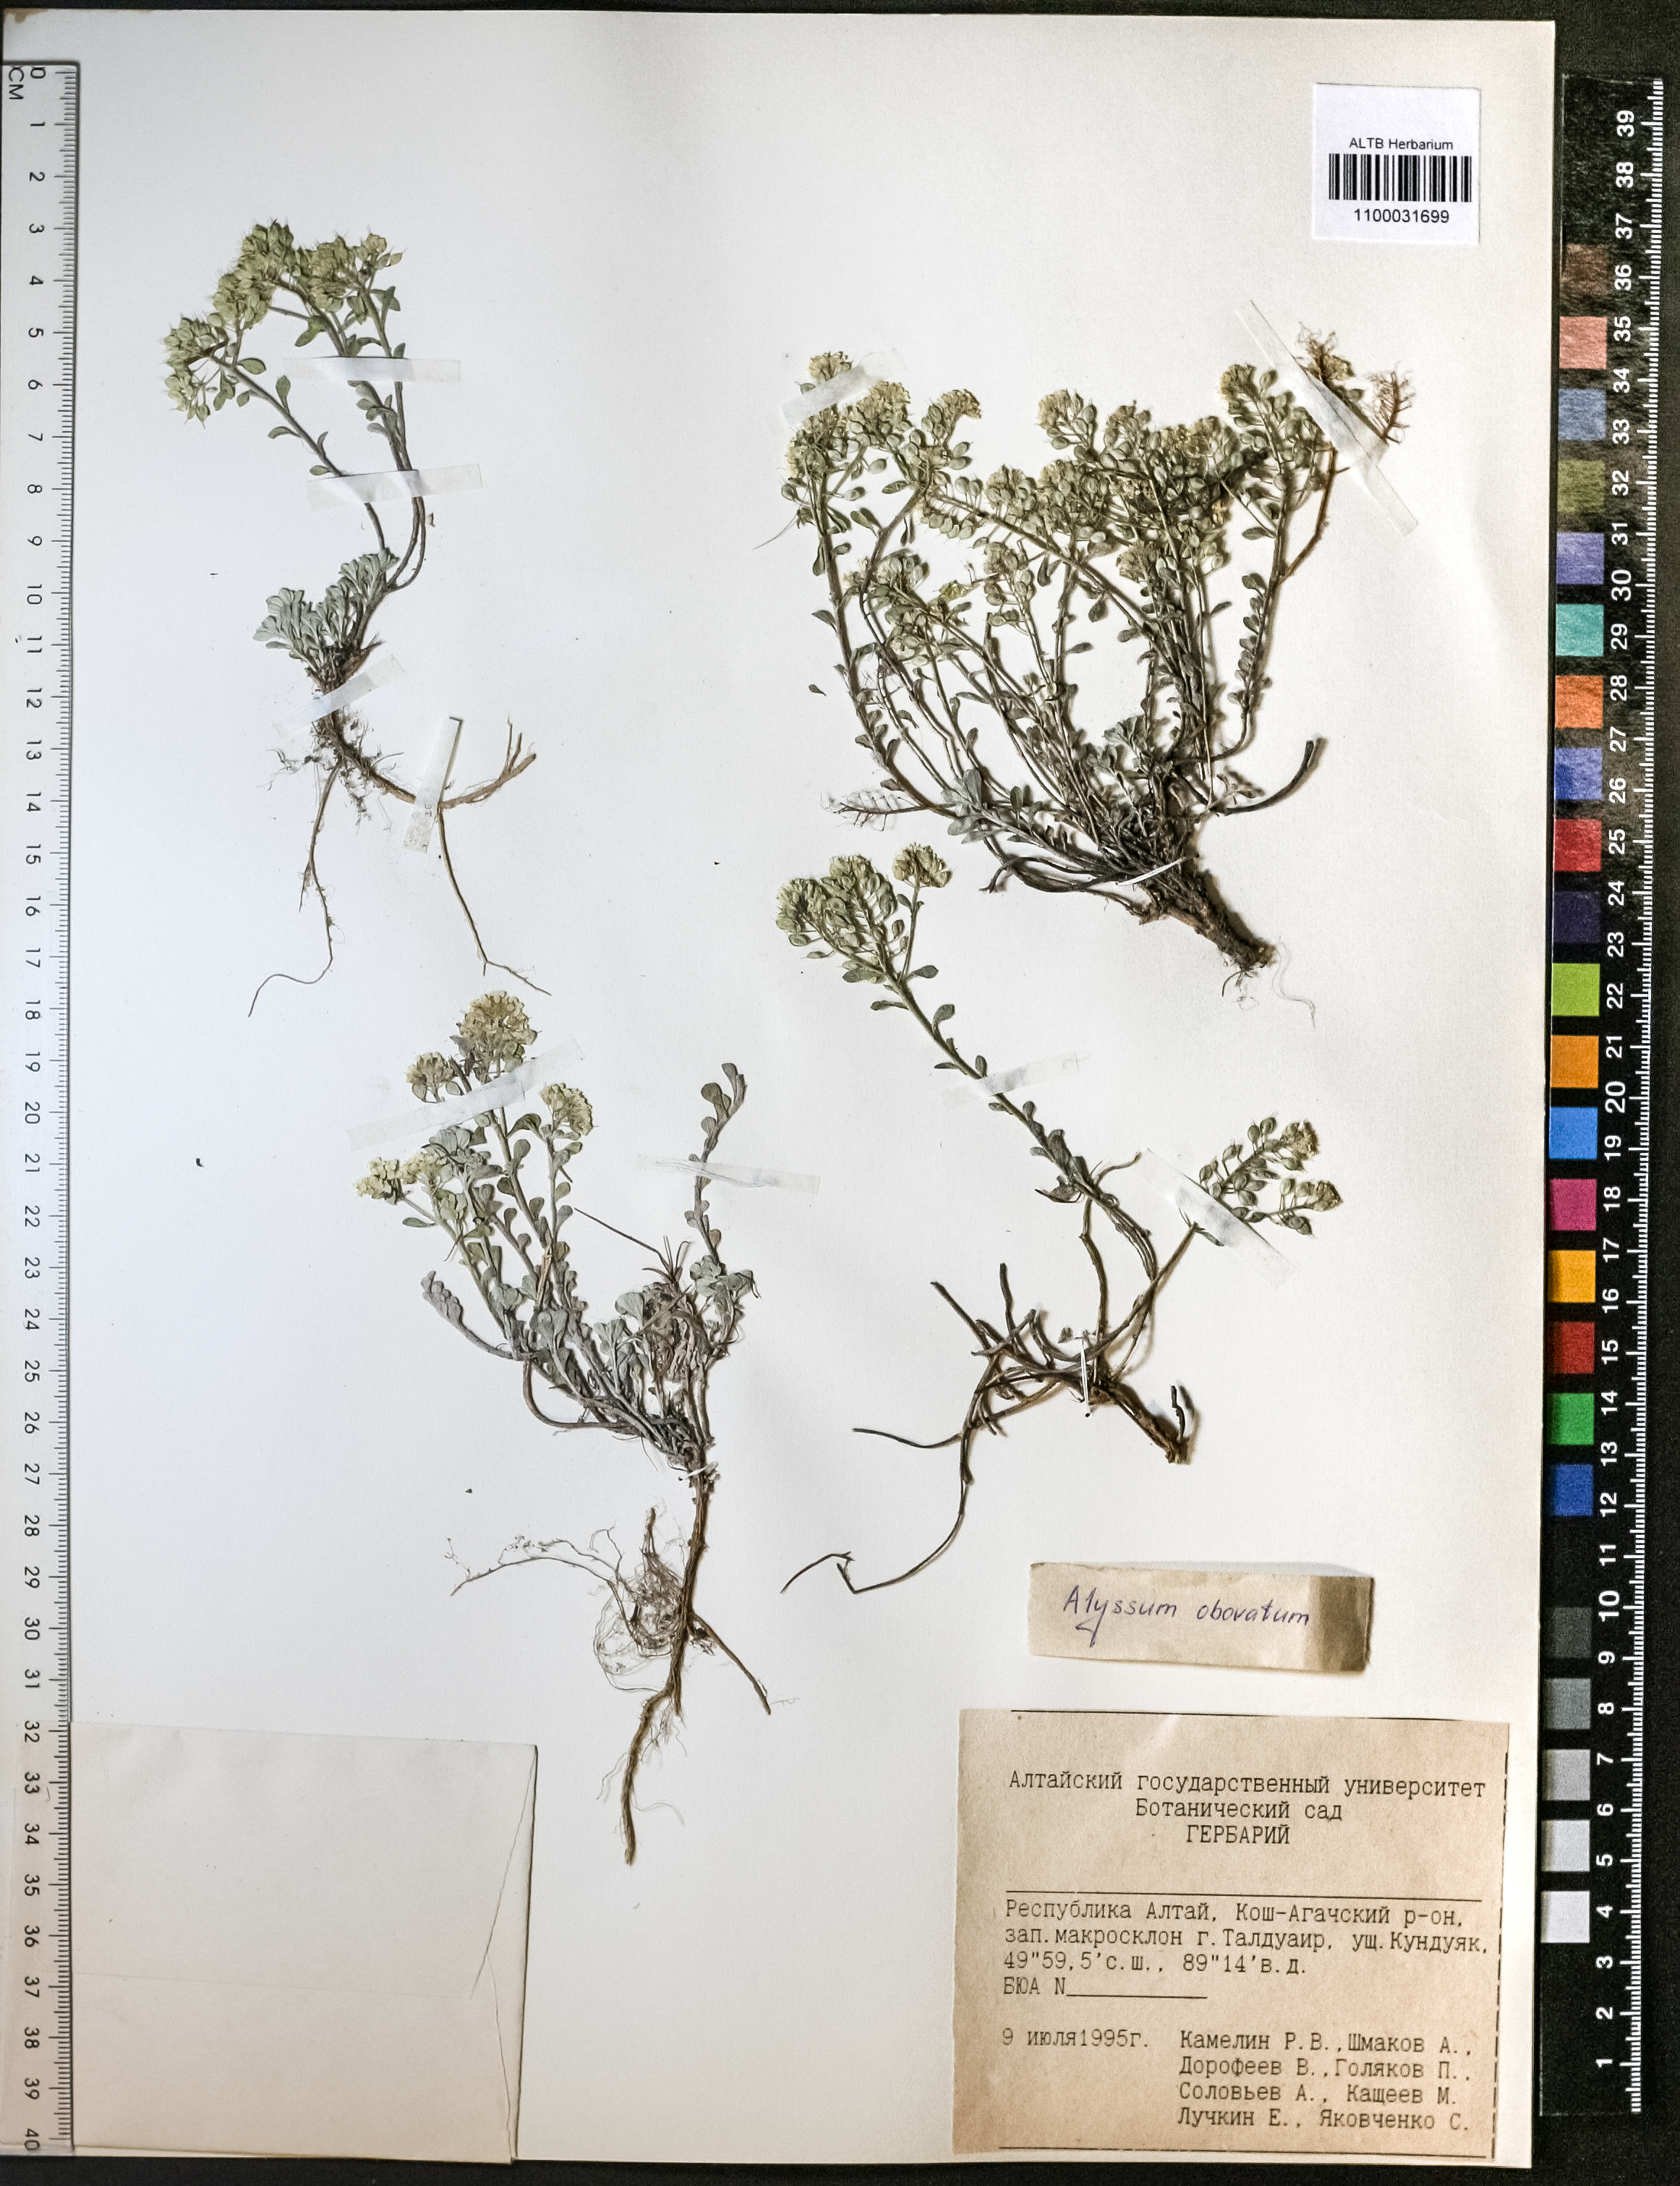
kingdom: Plantae
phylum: Tracheophyta
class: Magnoliopsida
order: Brassicales
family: Brassicaceae
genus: Odontarrhena
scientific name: Odontarrhena obovata
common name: American alyssum
